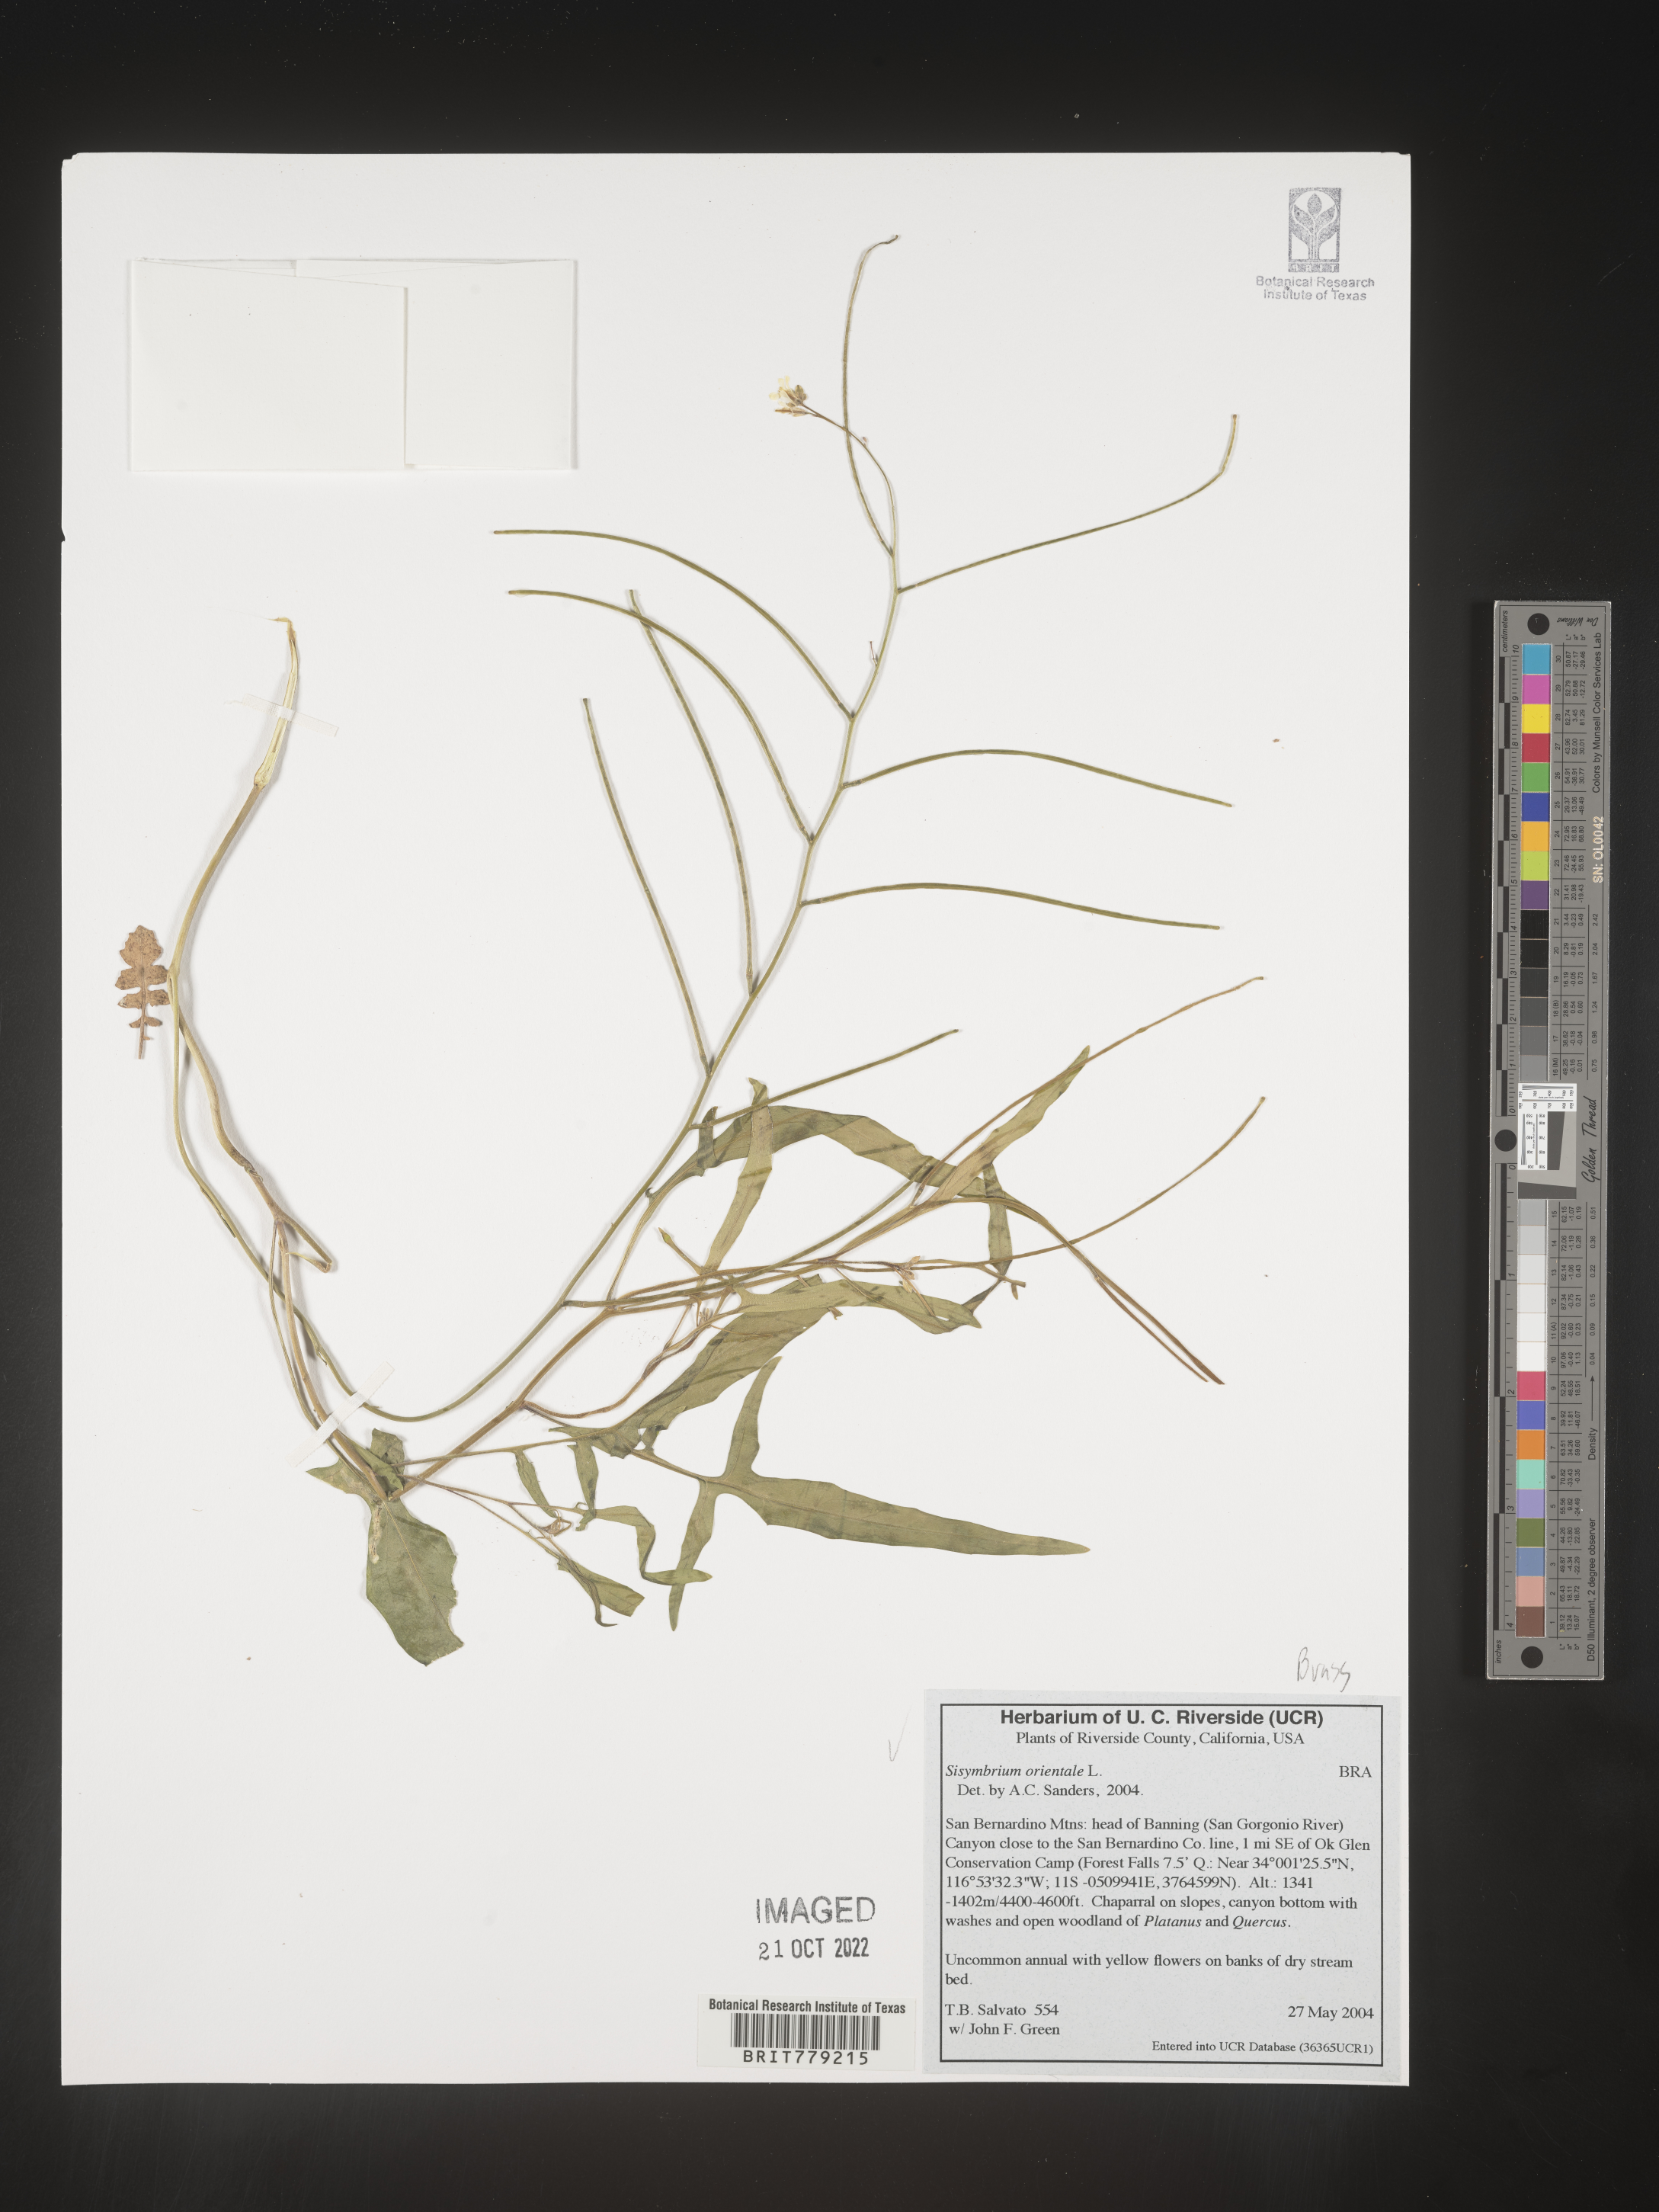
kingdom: Plantae
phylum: Tracheophyta
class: Magnoliopsida
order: Brassicales
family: Brassicaceae
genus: Sisymbrium
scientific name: Sisymbrium orientale
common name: Eastern rocket
